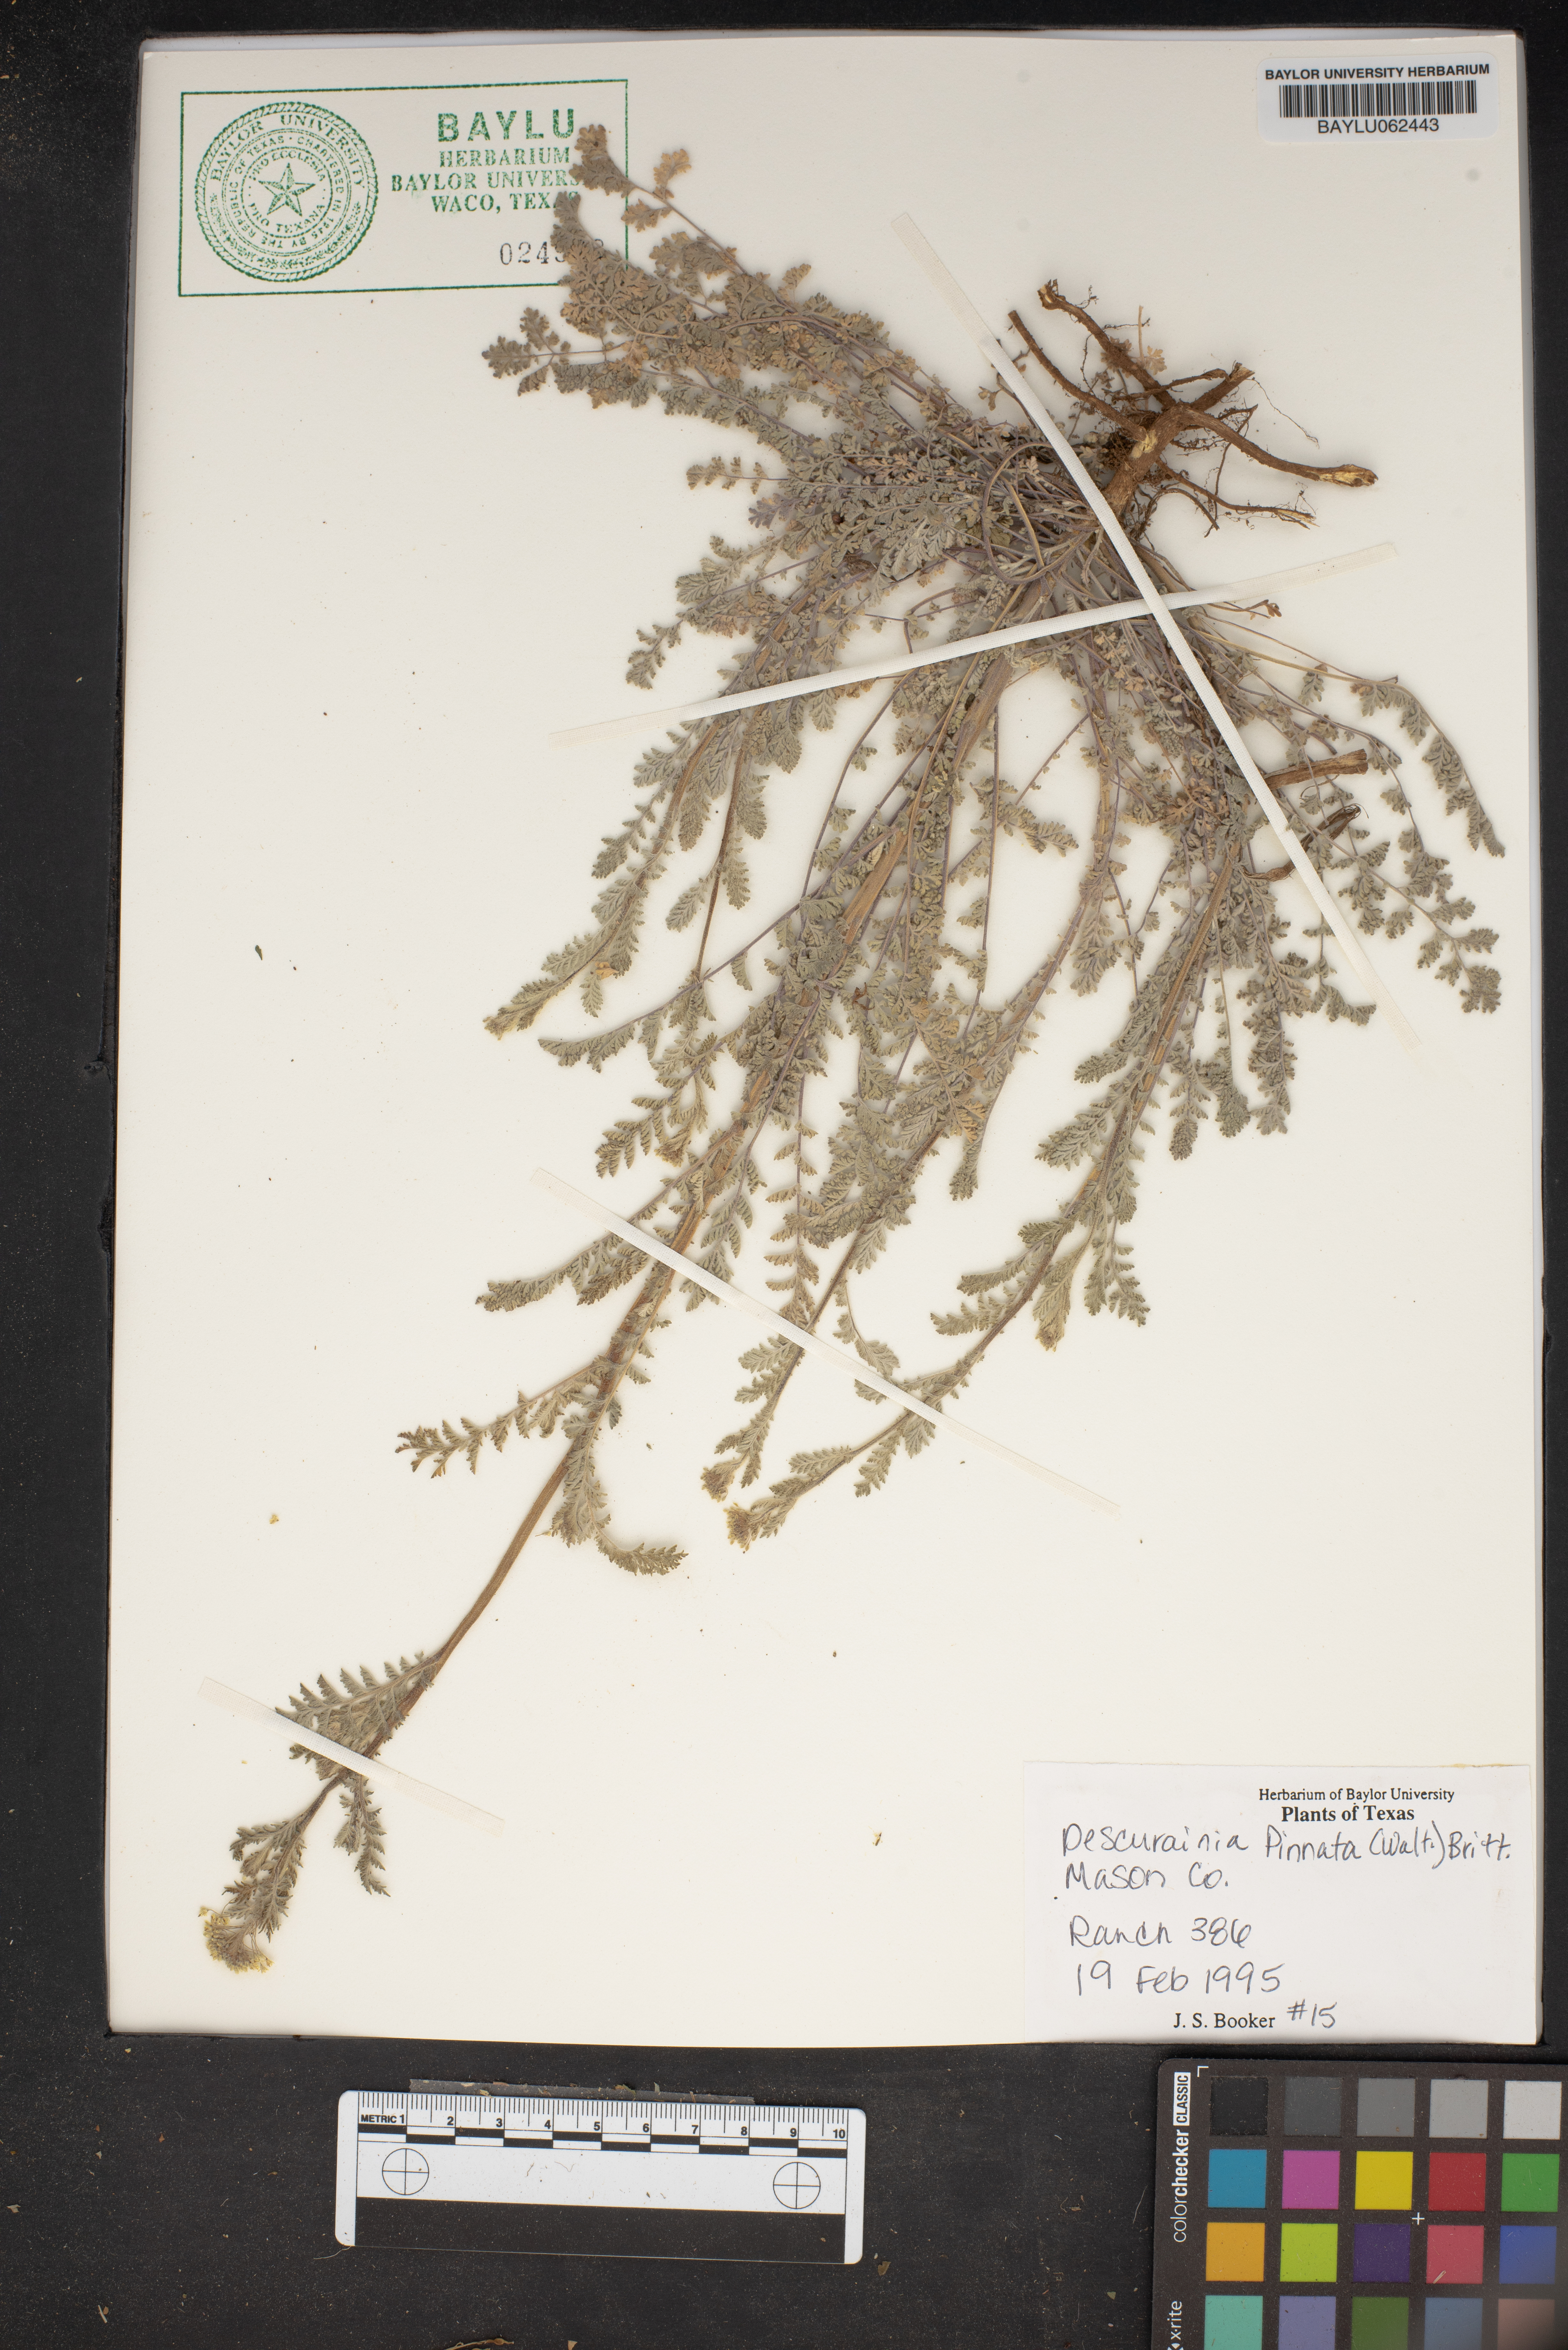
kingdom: Plantae
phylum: Tracheophyta
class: Magnoliopsida
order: Brassicales
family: Brassicaceae
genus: Descurainia
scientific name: Descurainia pinnata
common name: Western tansy mustard
